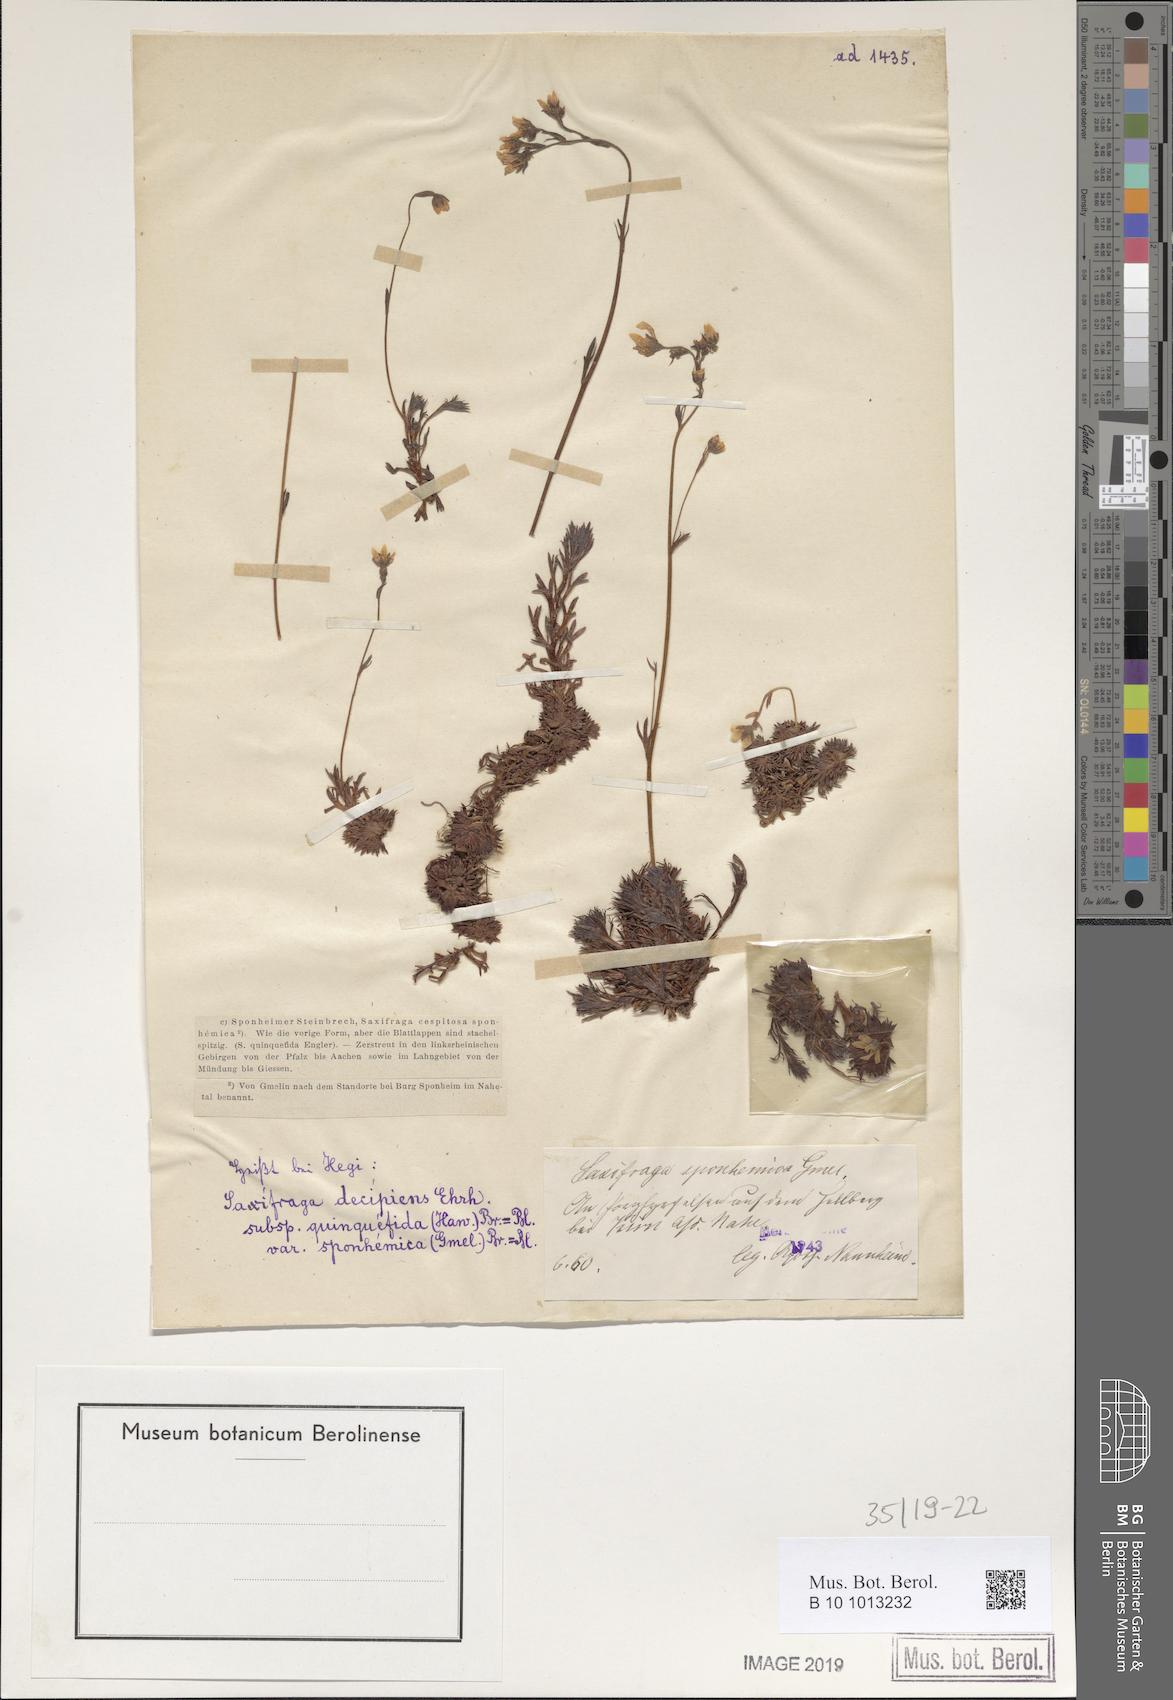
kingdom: Plantae
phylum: Tracheophyta
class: Magnoliopsida
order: Saxifragales
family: Saxifragaceae
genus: Saxifraga
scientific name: Saxifraga rosacea
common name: Irish saxifrage
